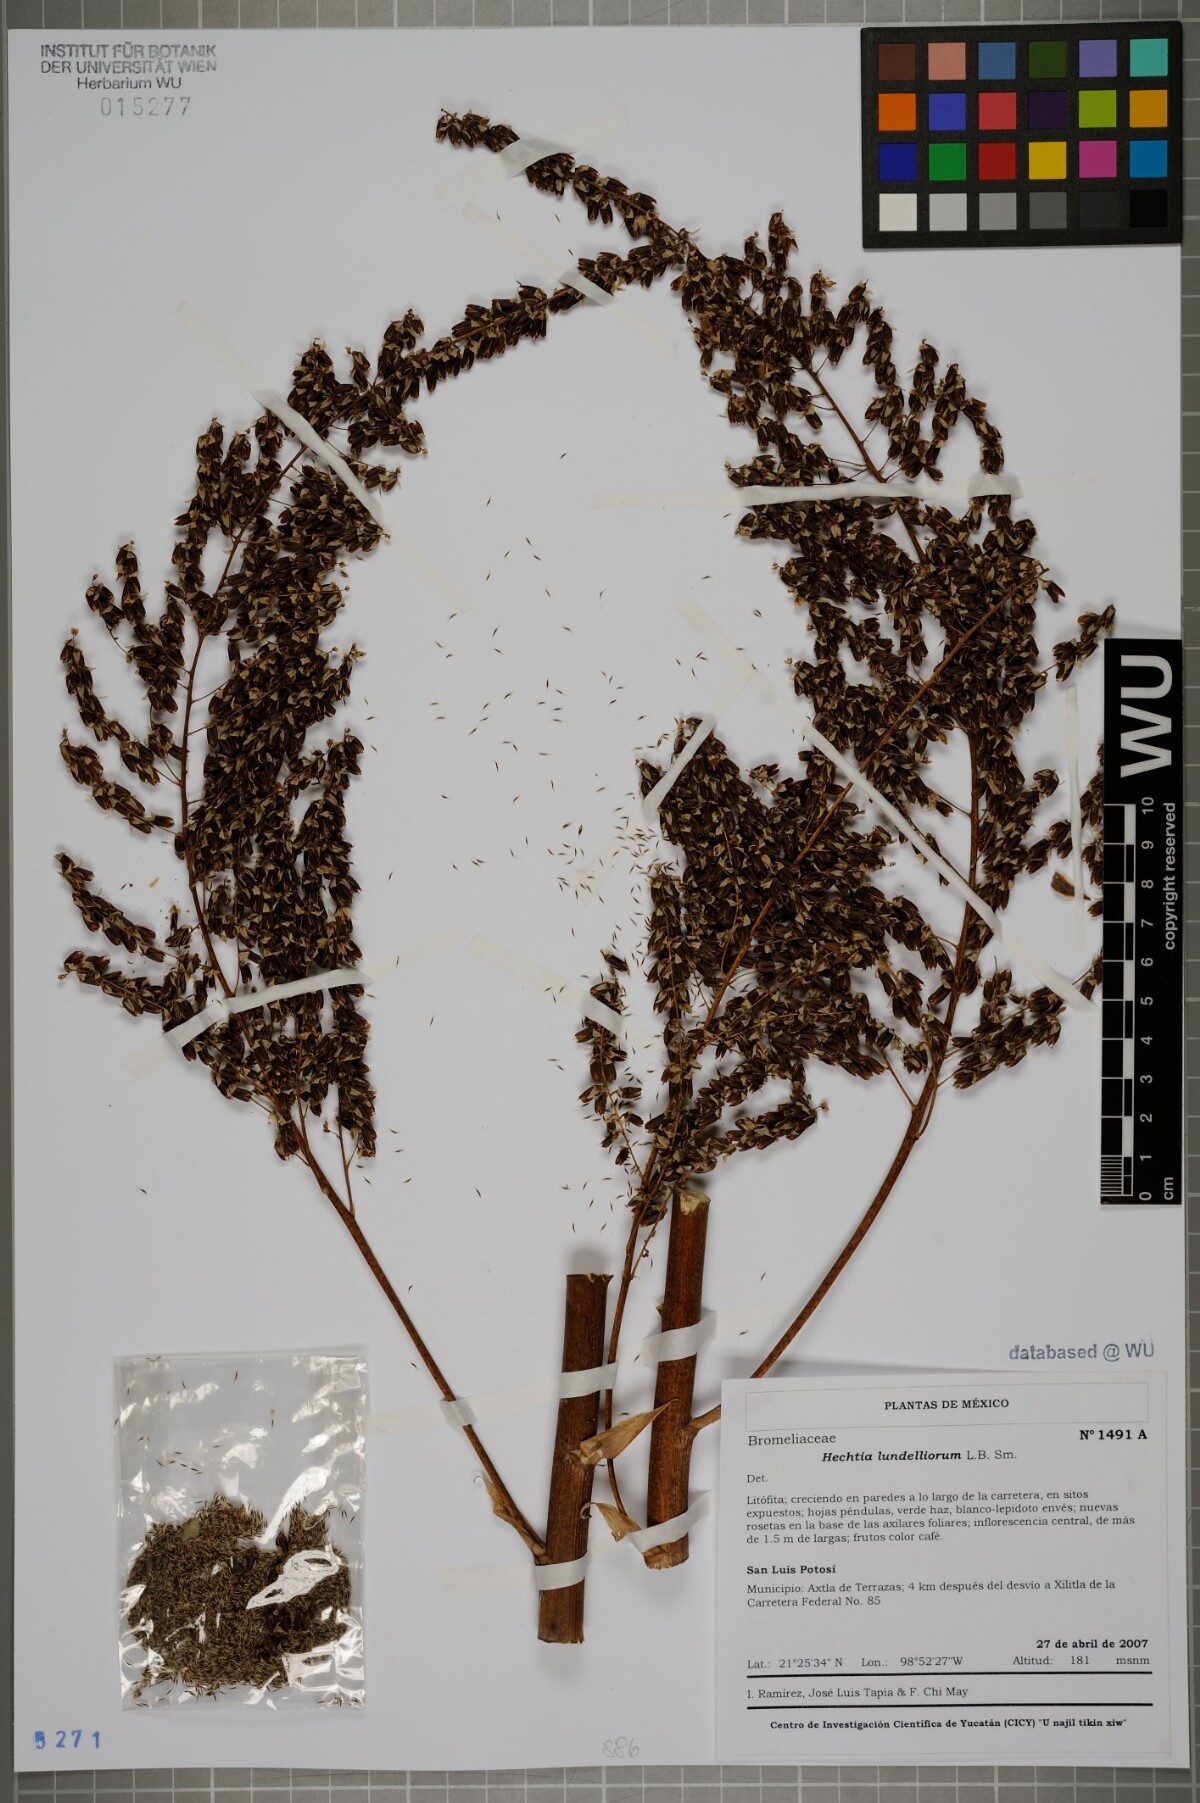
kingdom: Plantae
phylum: Tracheophyta
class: Liliopsida
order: Poales
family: Bromeliaceae
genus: Hechtia
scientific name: Hechtia lundelliorum
